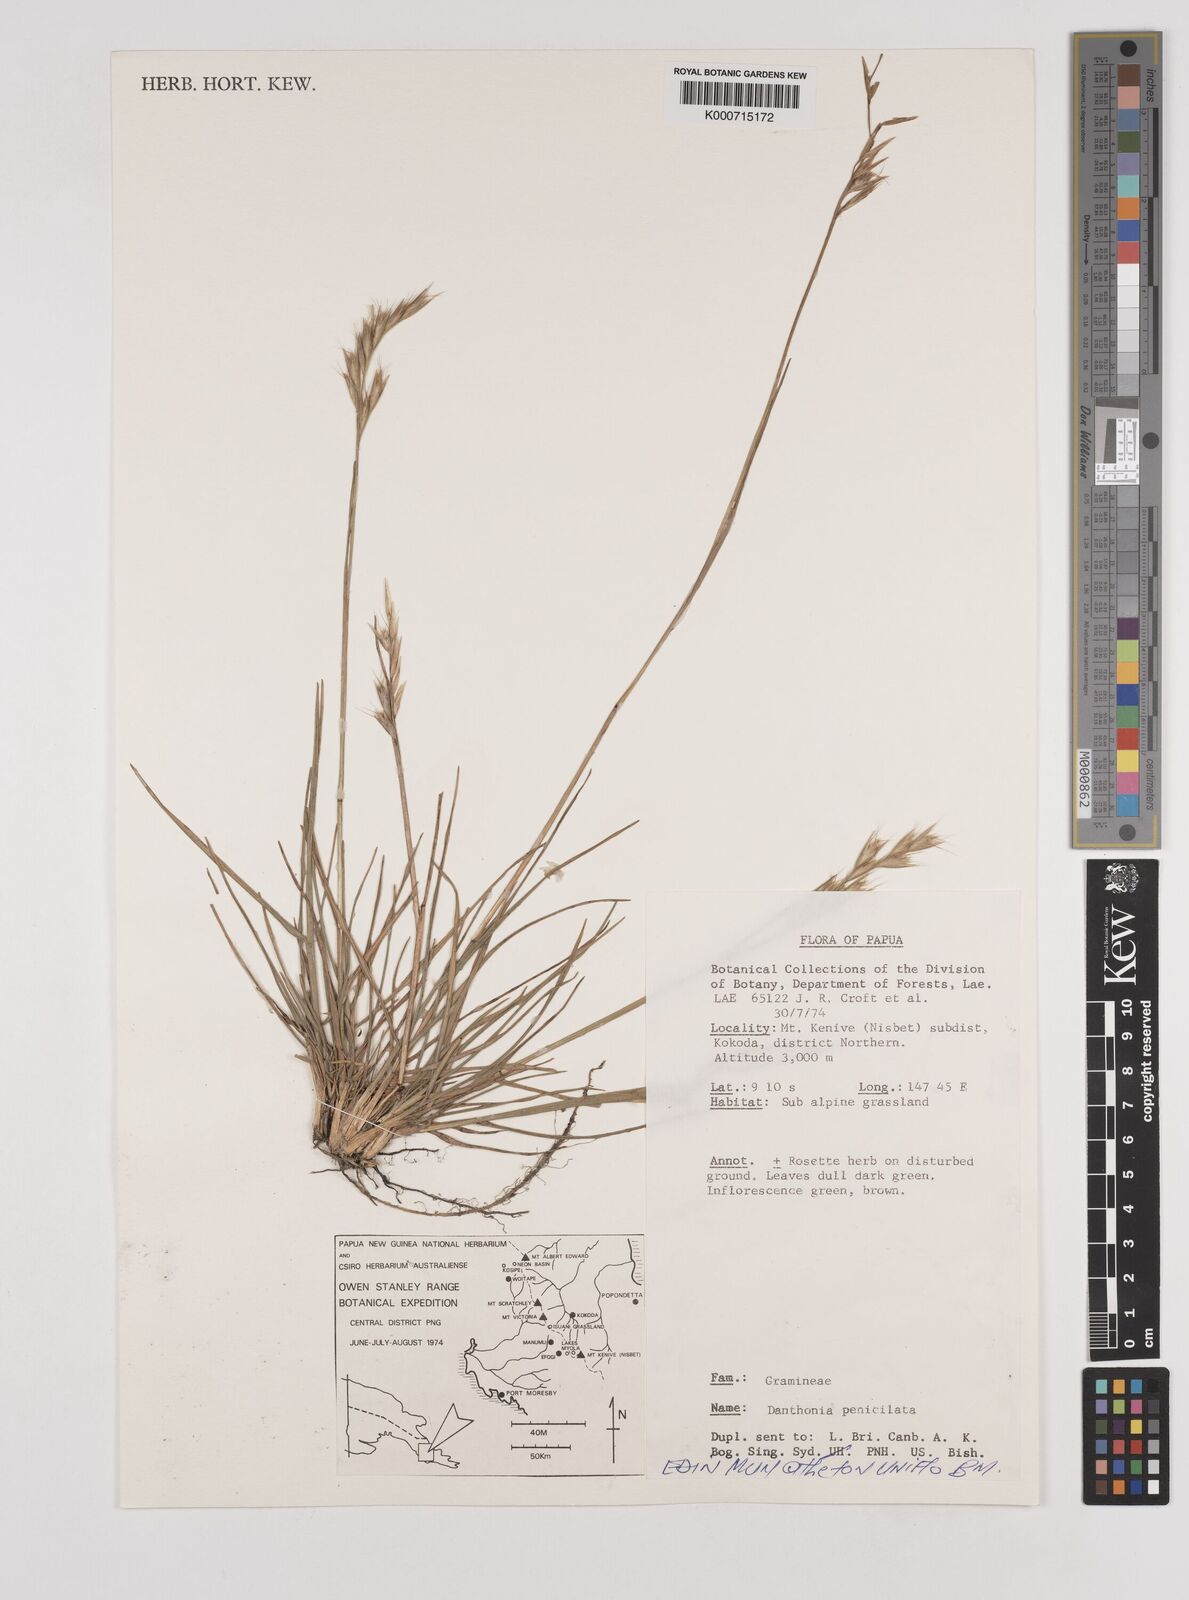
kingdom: Plantae
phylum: Tracheophyta
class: Liliopsida
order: Poales
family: Poaceae
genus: Rytidosperma
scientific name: Rytidosperma penicillatum
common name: Hairy wallaby grass
